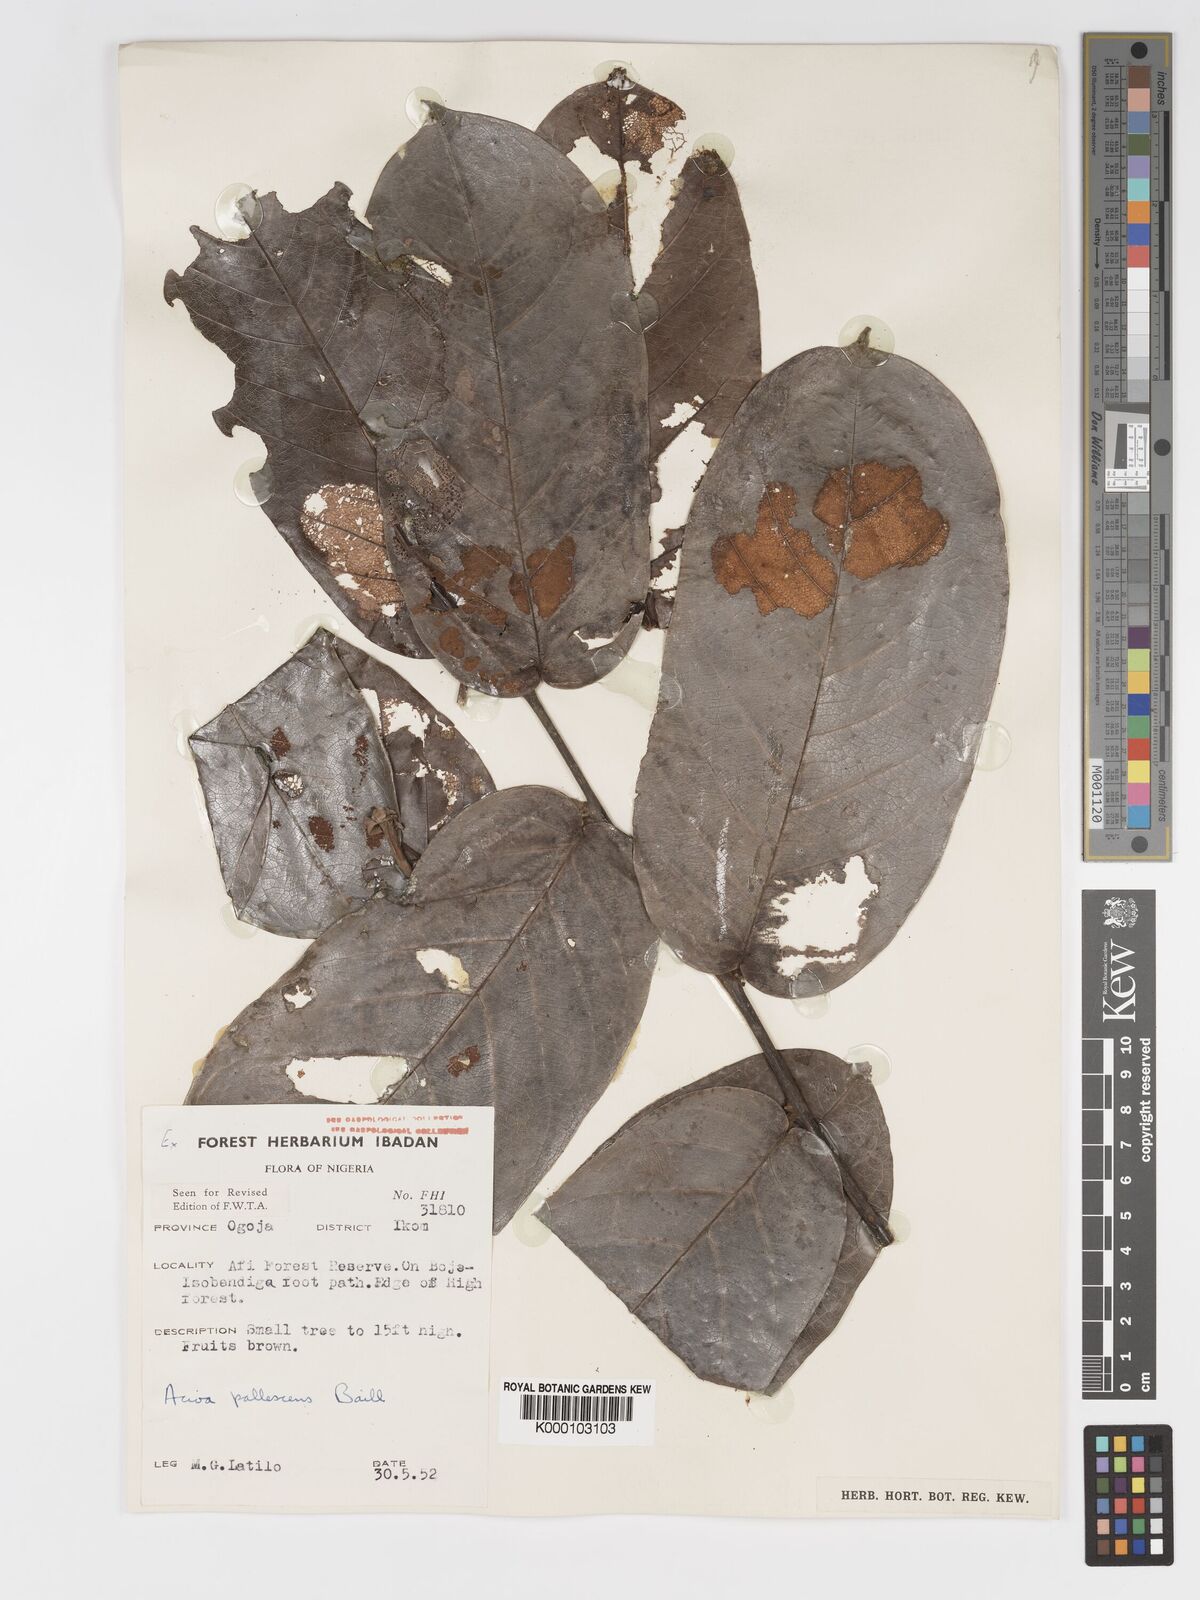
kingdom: Plantae
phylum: Tracheophyta
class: Magnoliopsida
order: Malpighiales
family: Chrysobalanaceae
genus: Dactyladenia
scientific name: Dactyladenia pallescens
